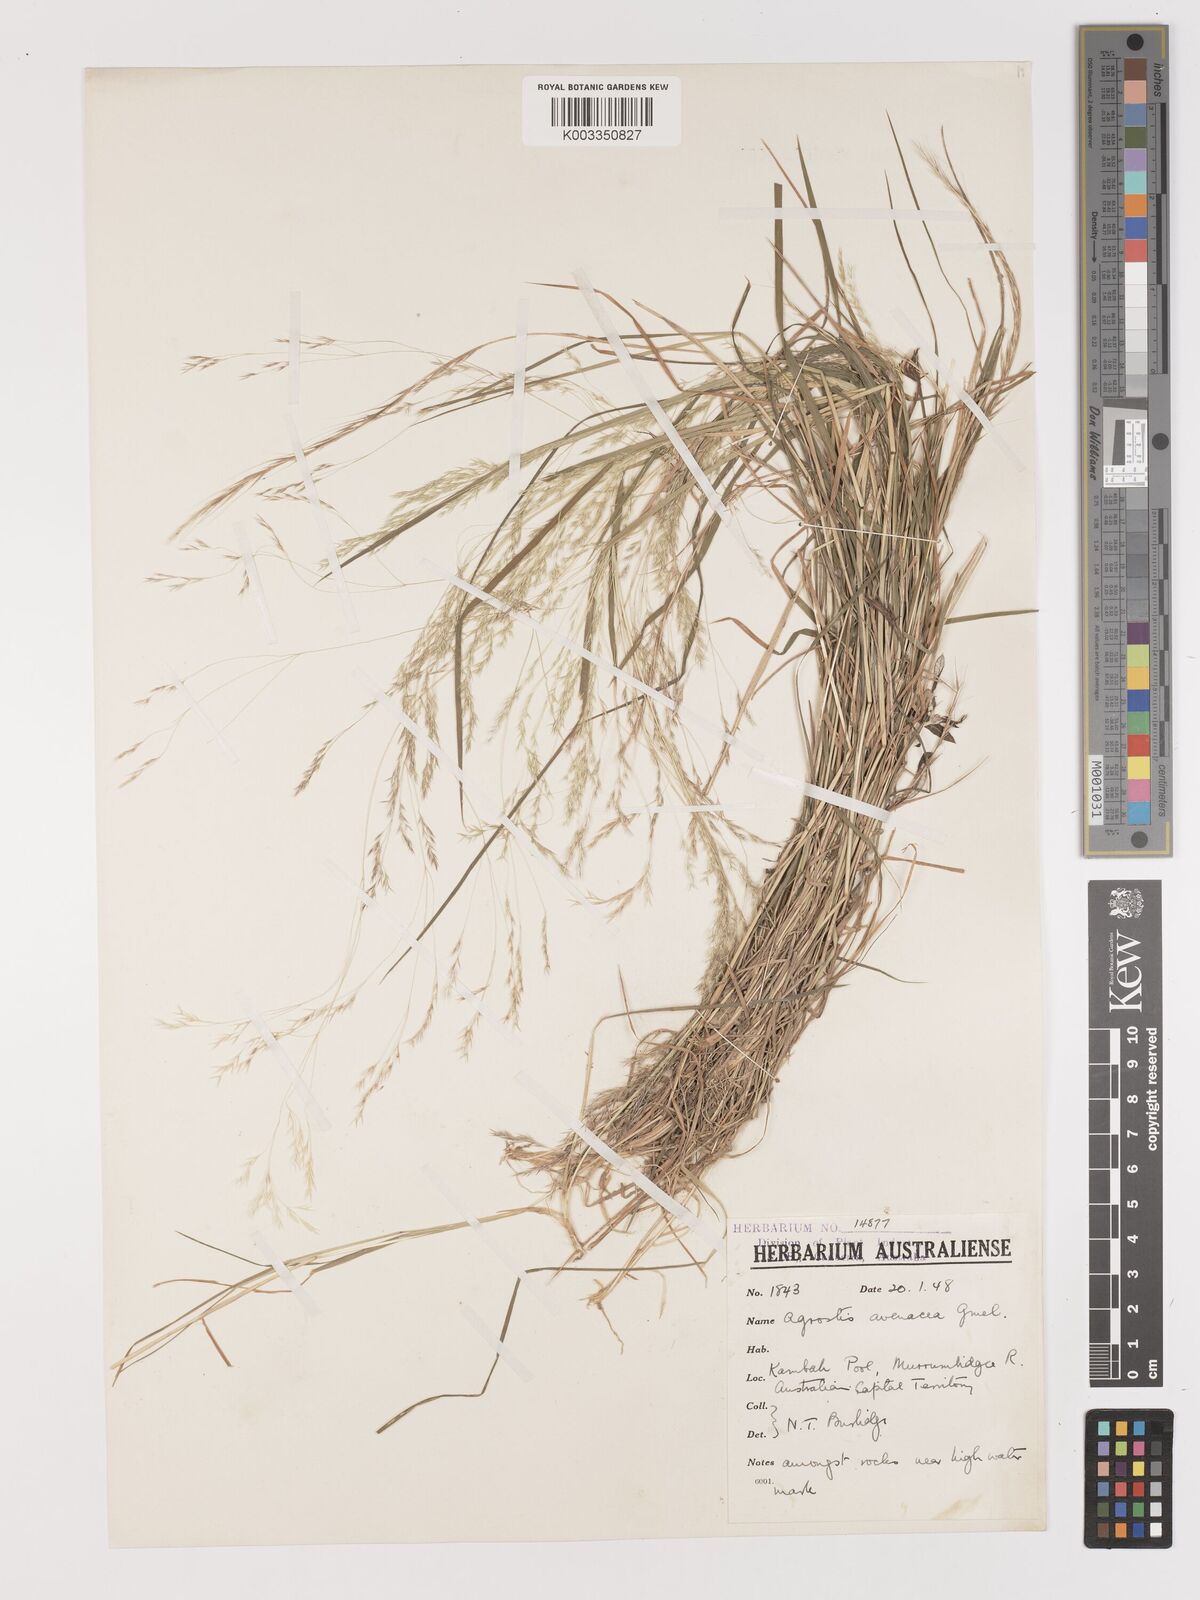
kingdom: Plantae
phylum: Tracheophyta
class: Liliopsida
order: Poales
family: Poaceae
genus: Lachnagrostis
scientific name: Lachnagrostis filiformis
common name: Bentgrass
